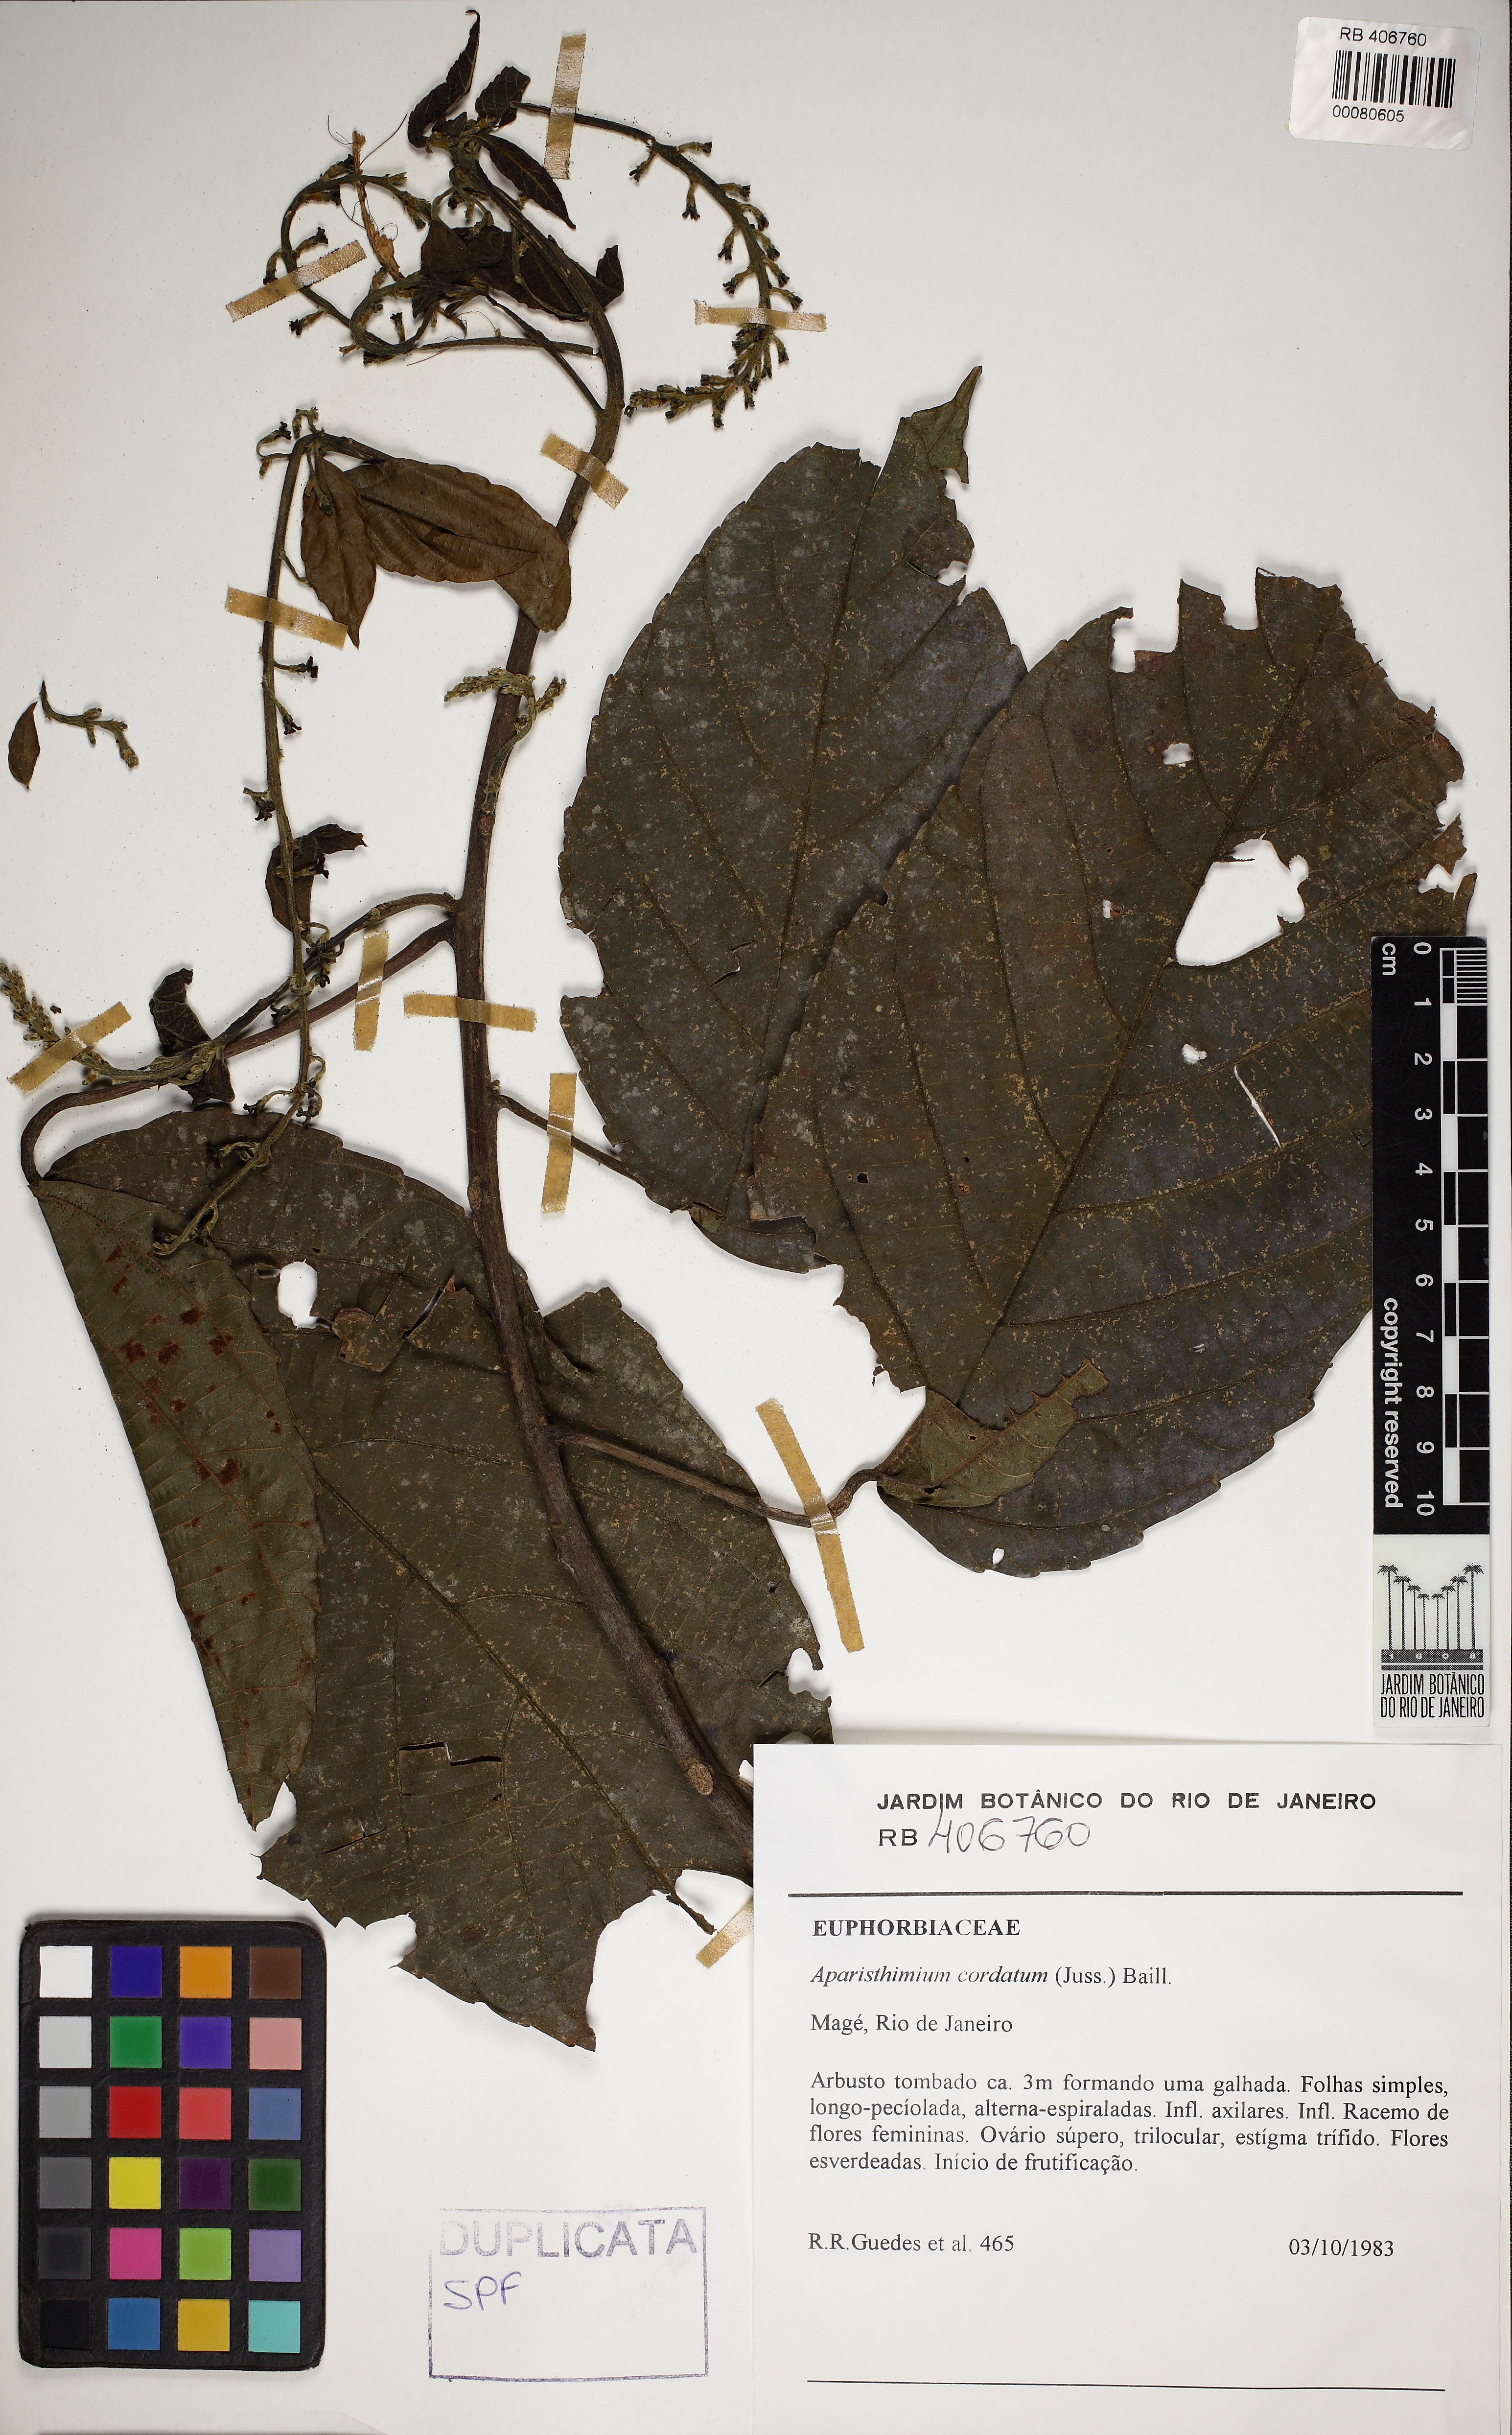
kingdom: Plantae
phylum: Tracheophyta
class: Magnoliopsida
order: Malpighiales
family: Euphorbiaceae
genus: Aparisthmium
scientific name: Aparisthmium cordatum
